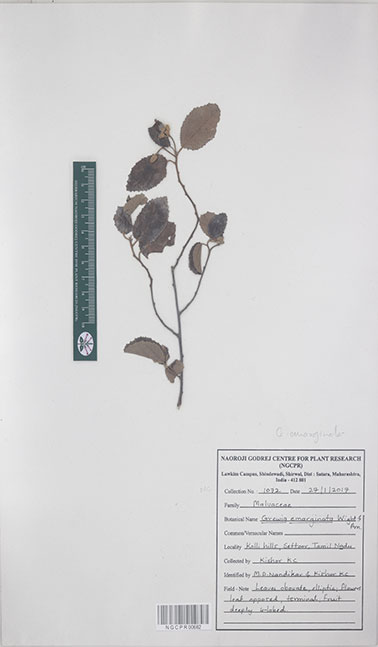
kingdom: Plantae
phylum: Tracheophyta
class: Magnoliopsida
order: Malvales
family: Malvaceae
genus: Grewia
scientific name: Grewia oppositifolia
